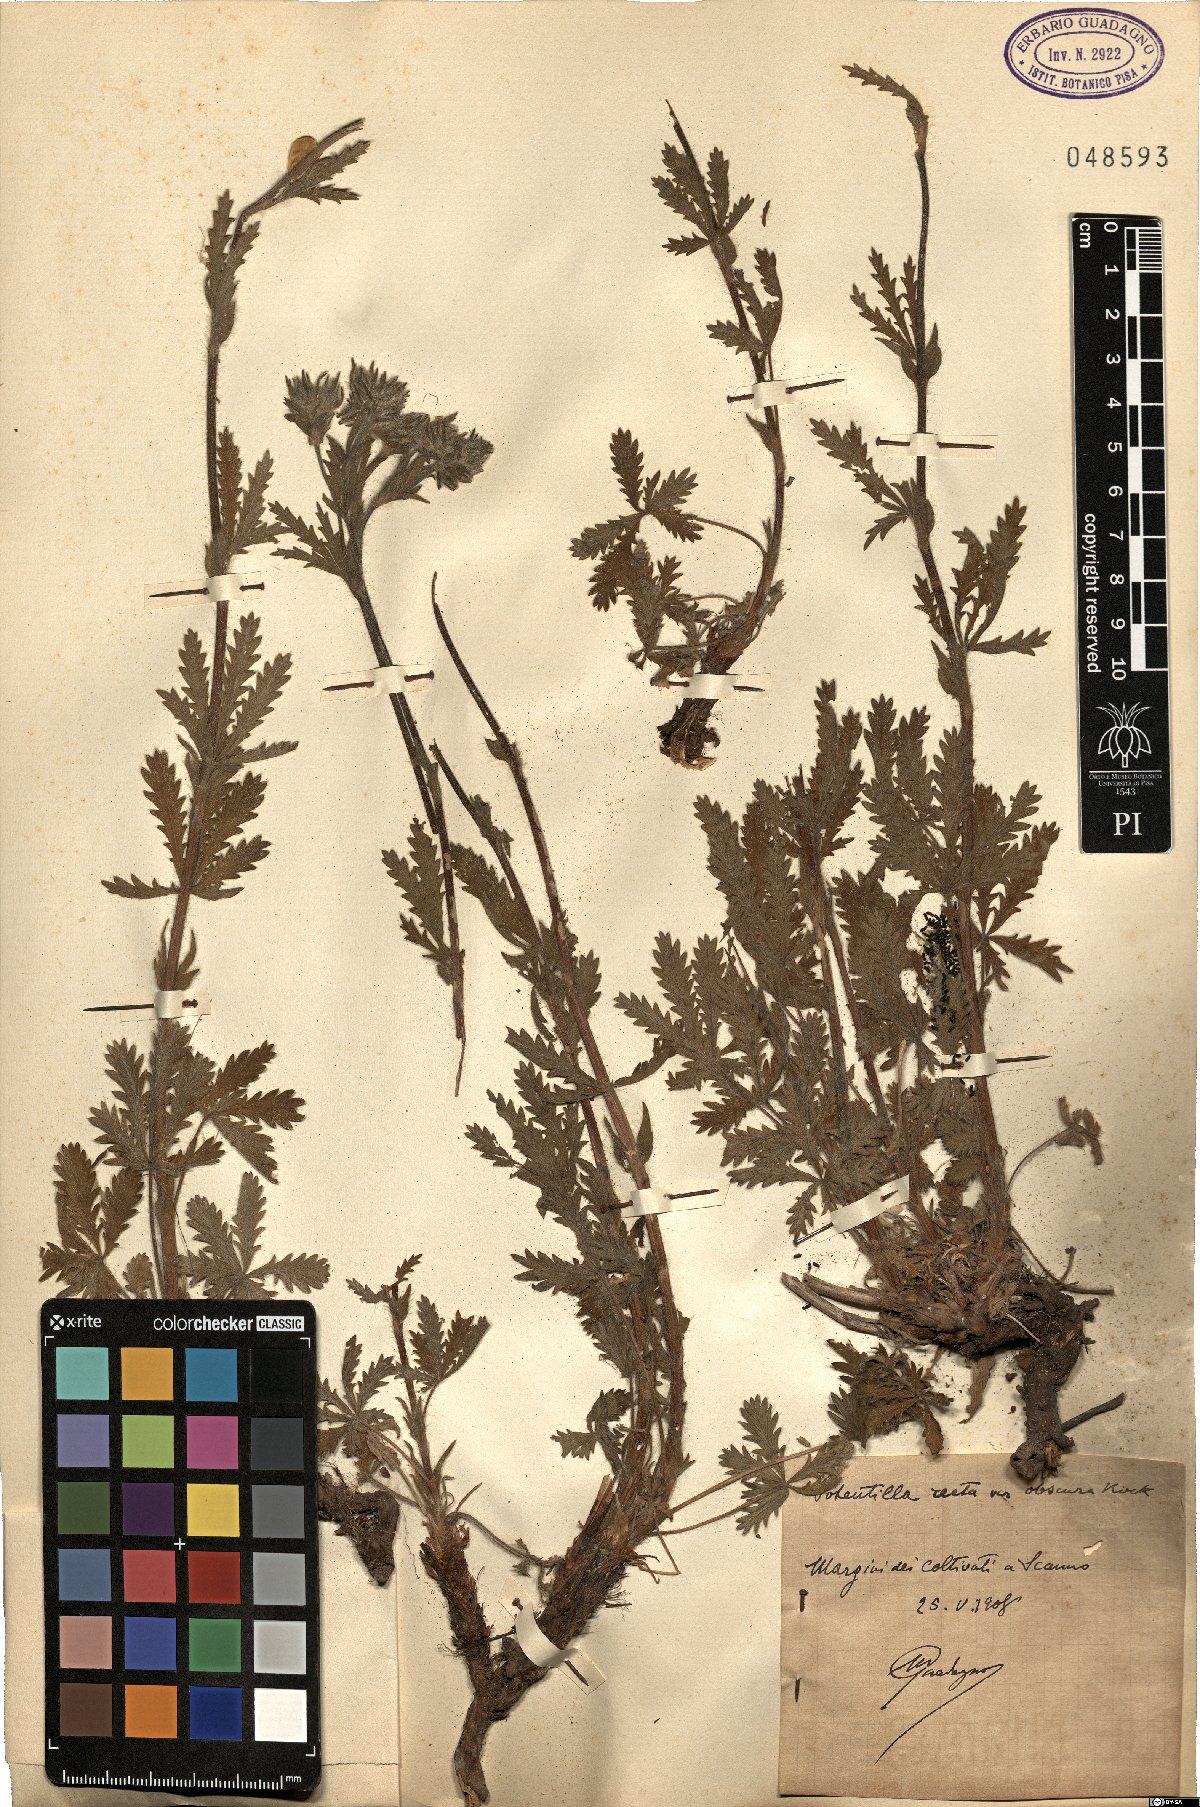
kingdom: Plantae
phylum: Tracheophyta
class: Magnoliopsida
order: Rosales
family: Rosaceae
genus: Potentilla
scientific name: Potentilla recta
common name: Sulphur cinquefoil
